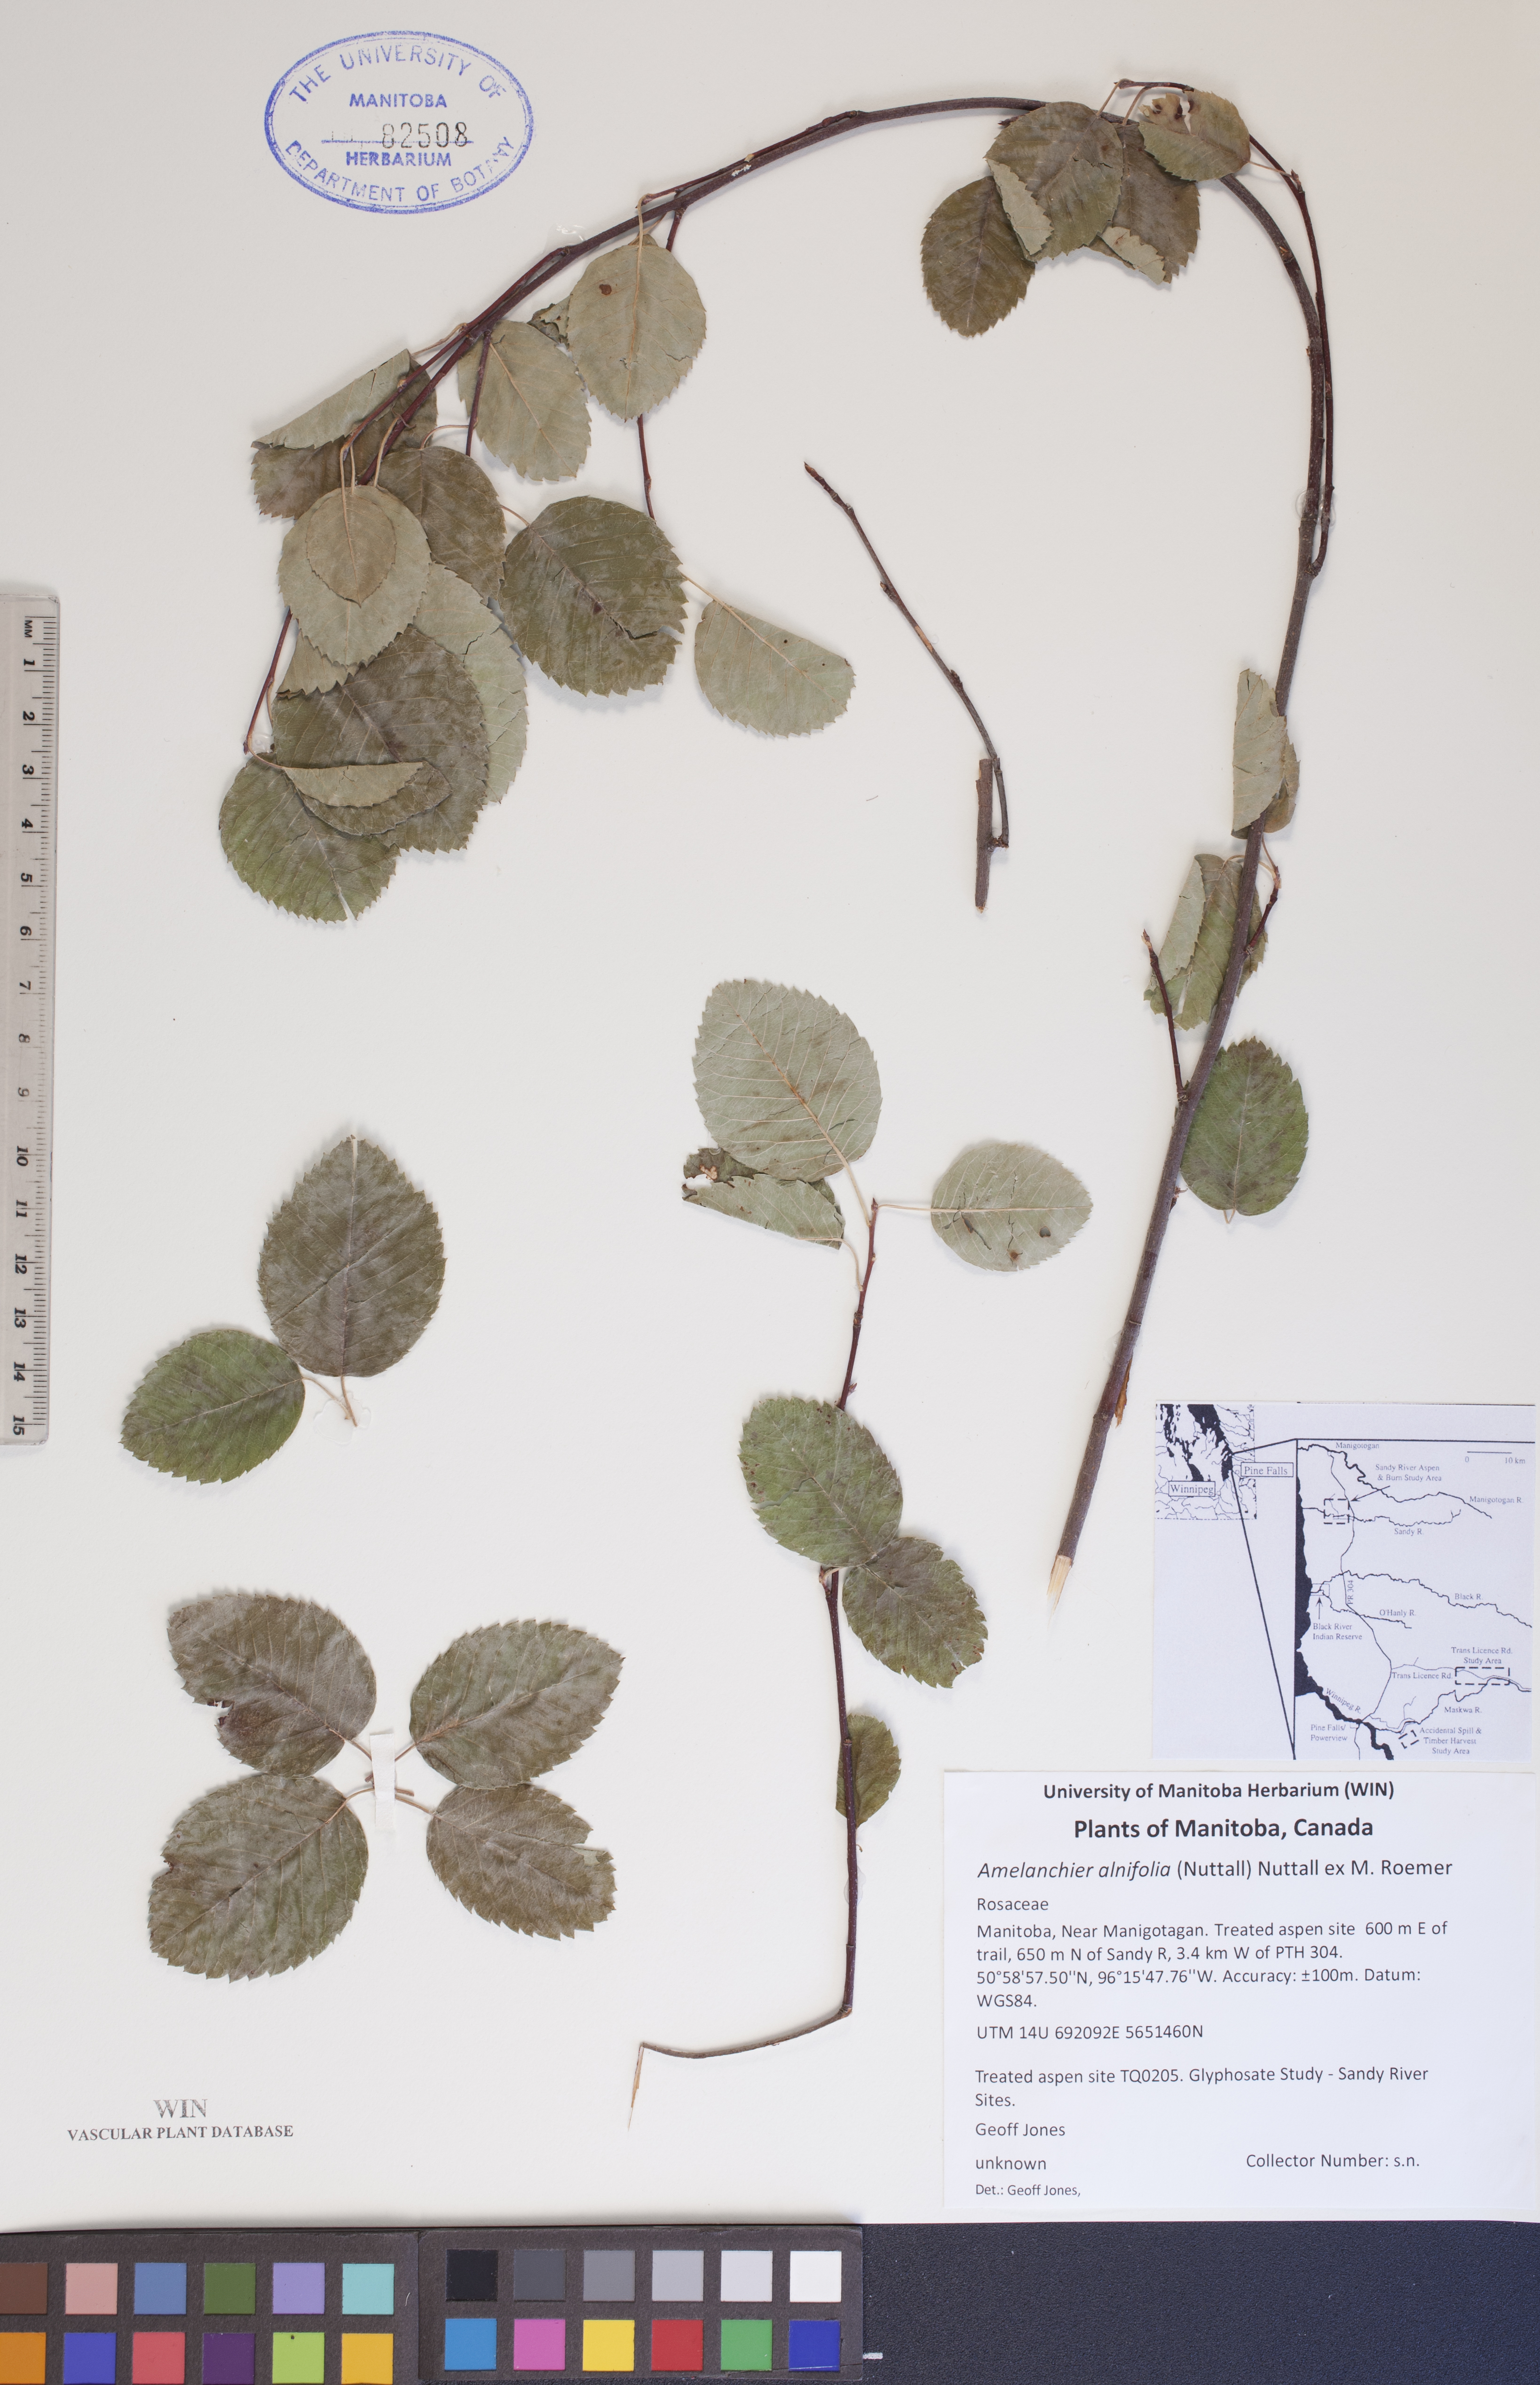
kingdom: Plantae
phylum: Tracheophyta
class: Magnoliopsida
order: Rosales
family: Rosaceae
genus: Amelanchier
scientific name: Amelanchier alnifolia
